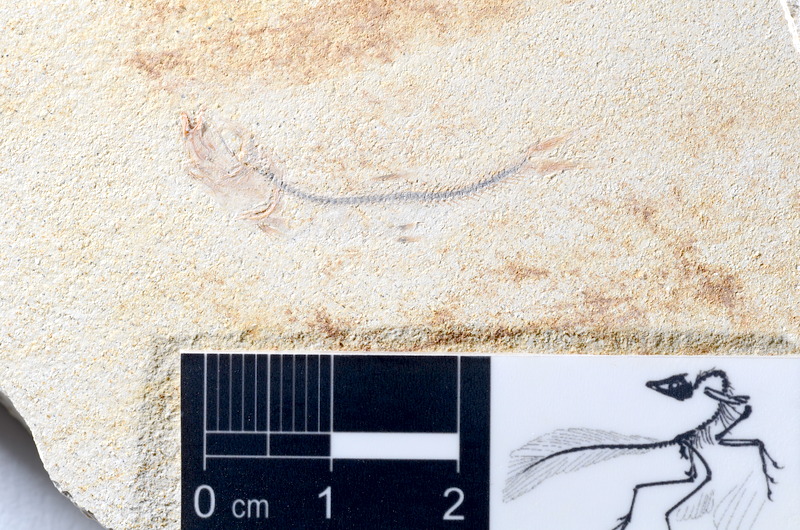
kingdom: Animalia
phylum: Chordata
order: Salmoniformes
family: Orthogonikleithridae
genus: Orthogonikleithrus
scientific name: Orthogonikleithrus hoelli
